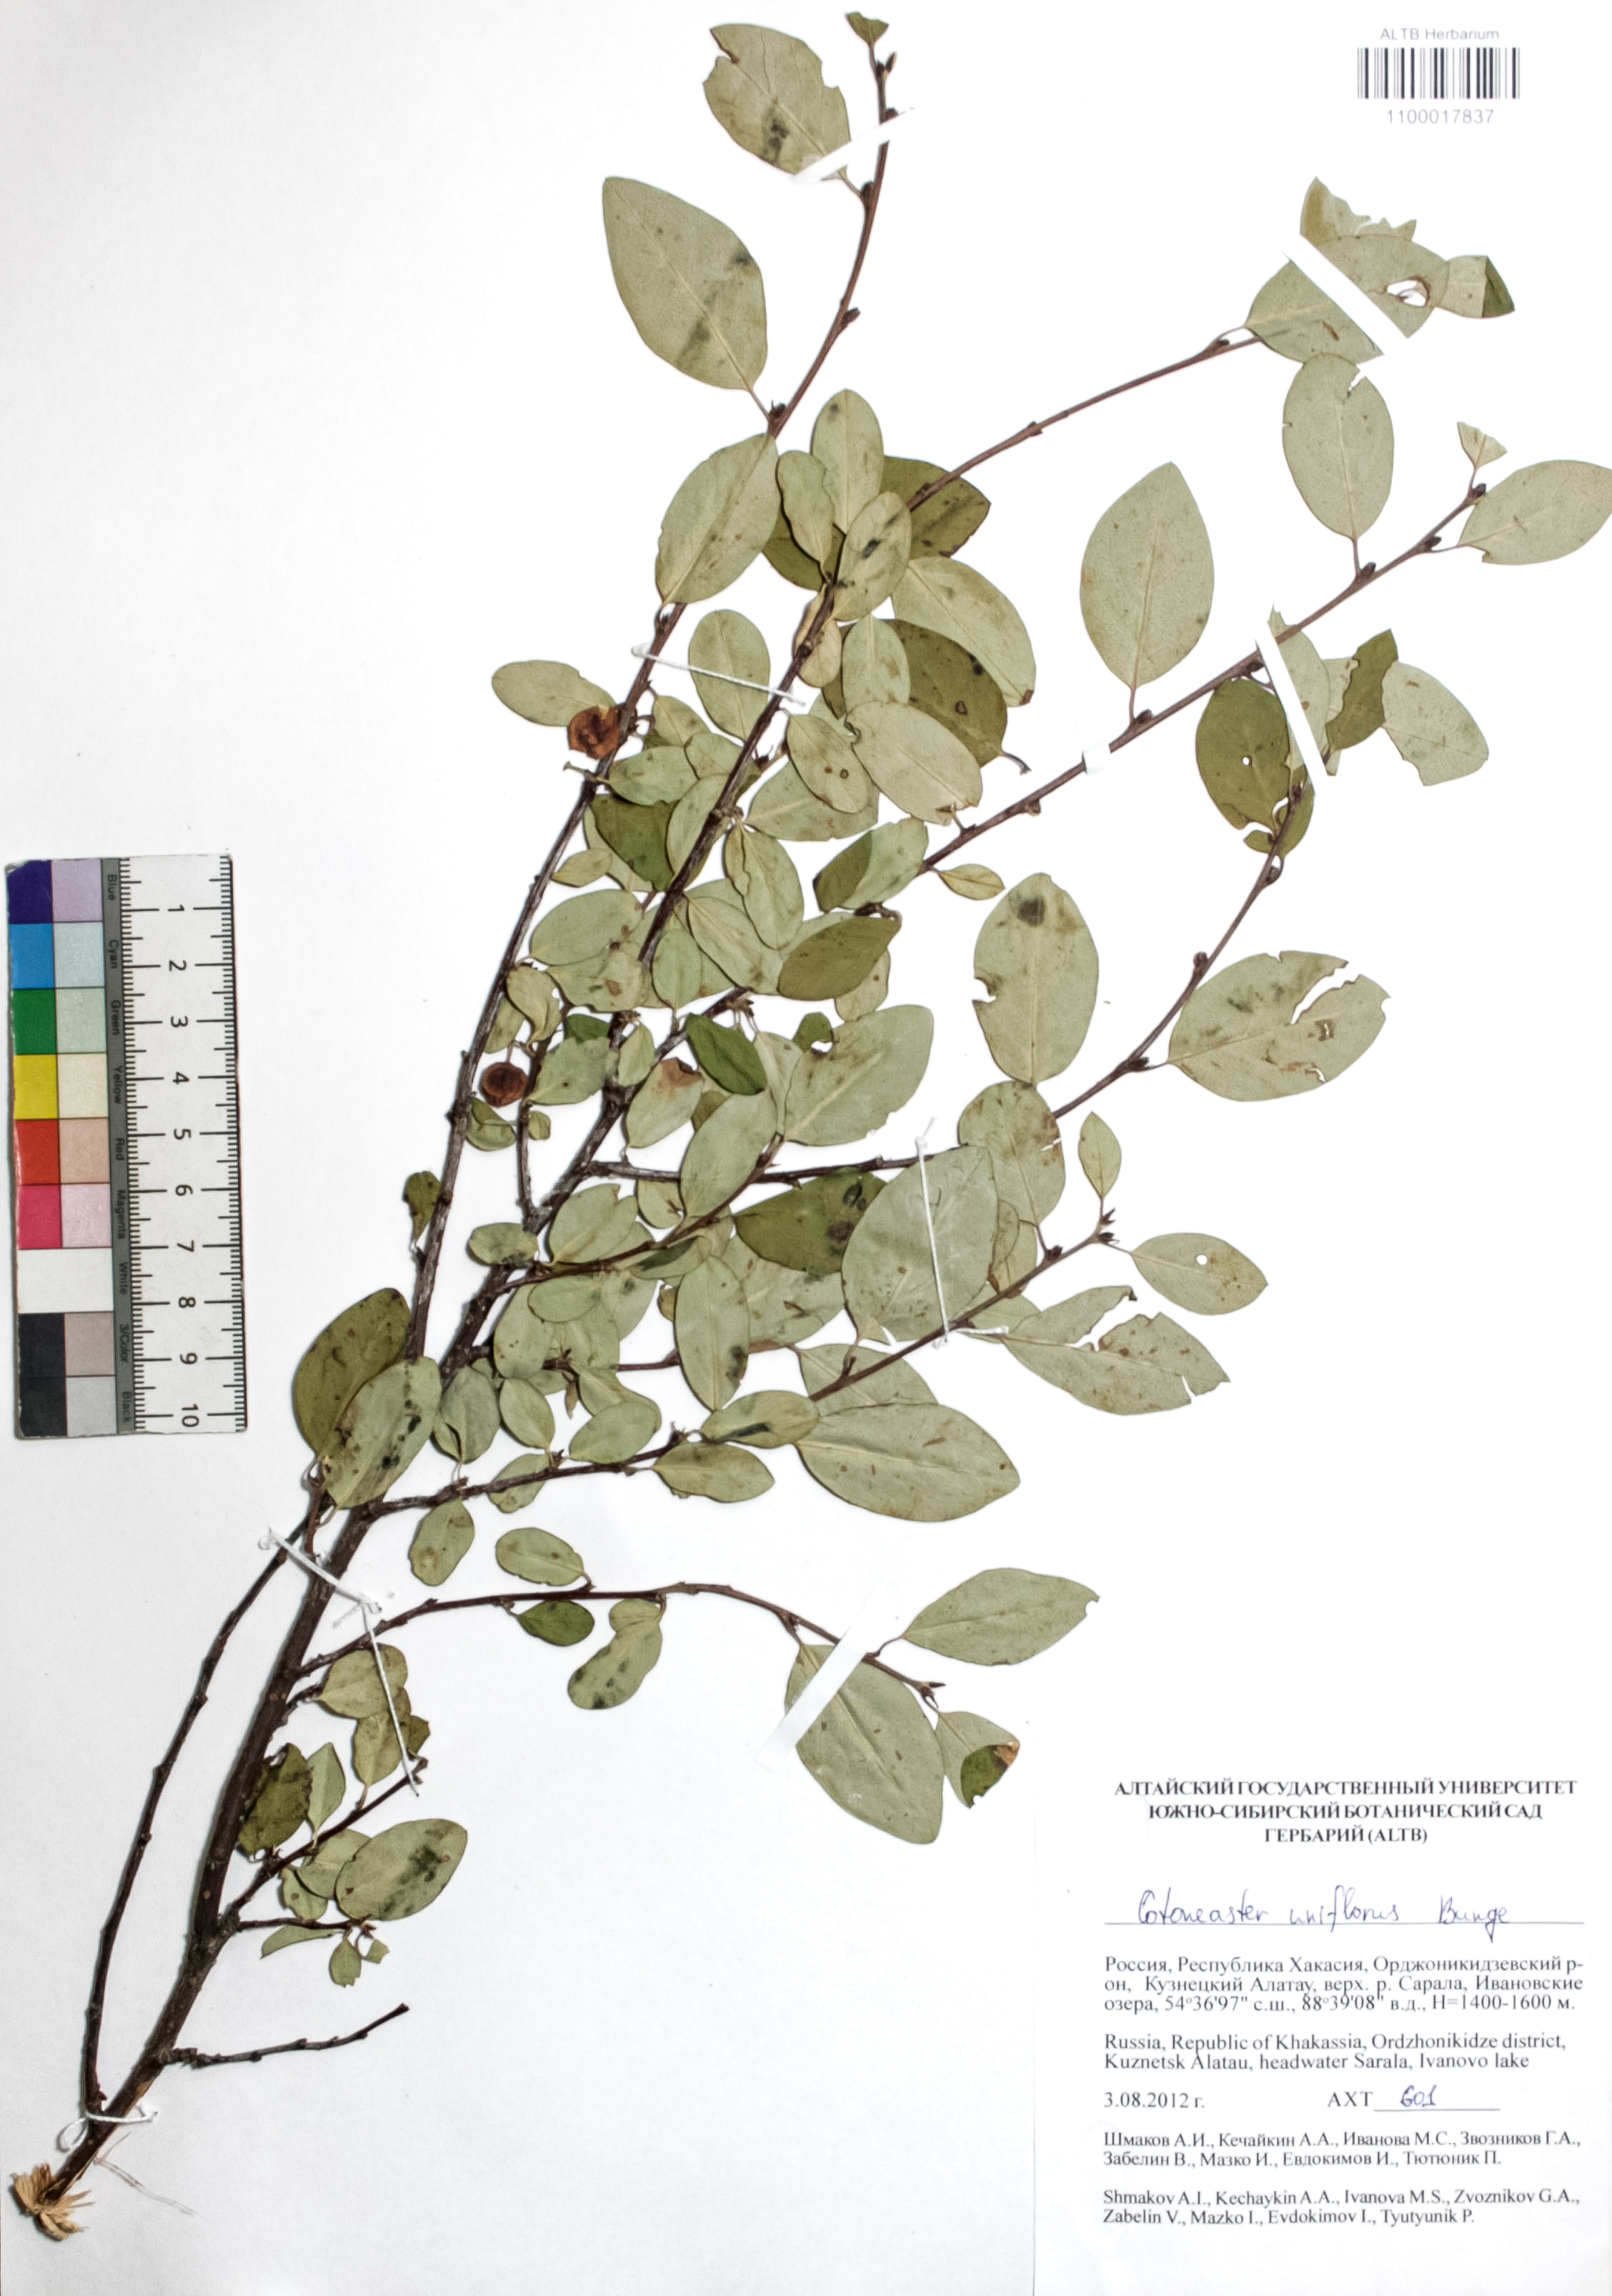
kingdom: Plantae
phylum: Tracheophyta
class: Magnoliopsida
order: Rosales
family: Rosaceae
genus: Cotoneaster
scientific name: Cotoneaster uniflorus
